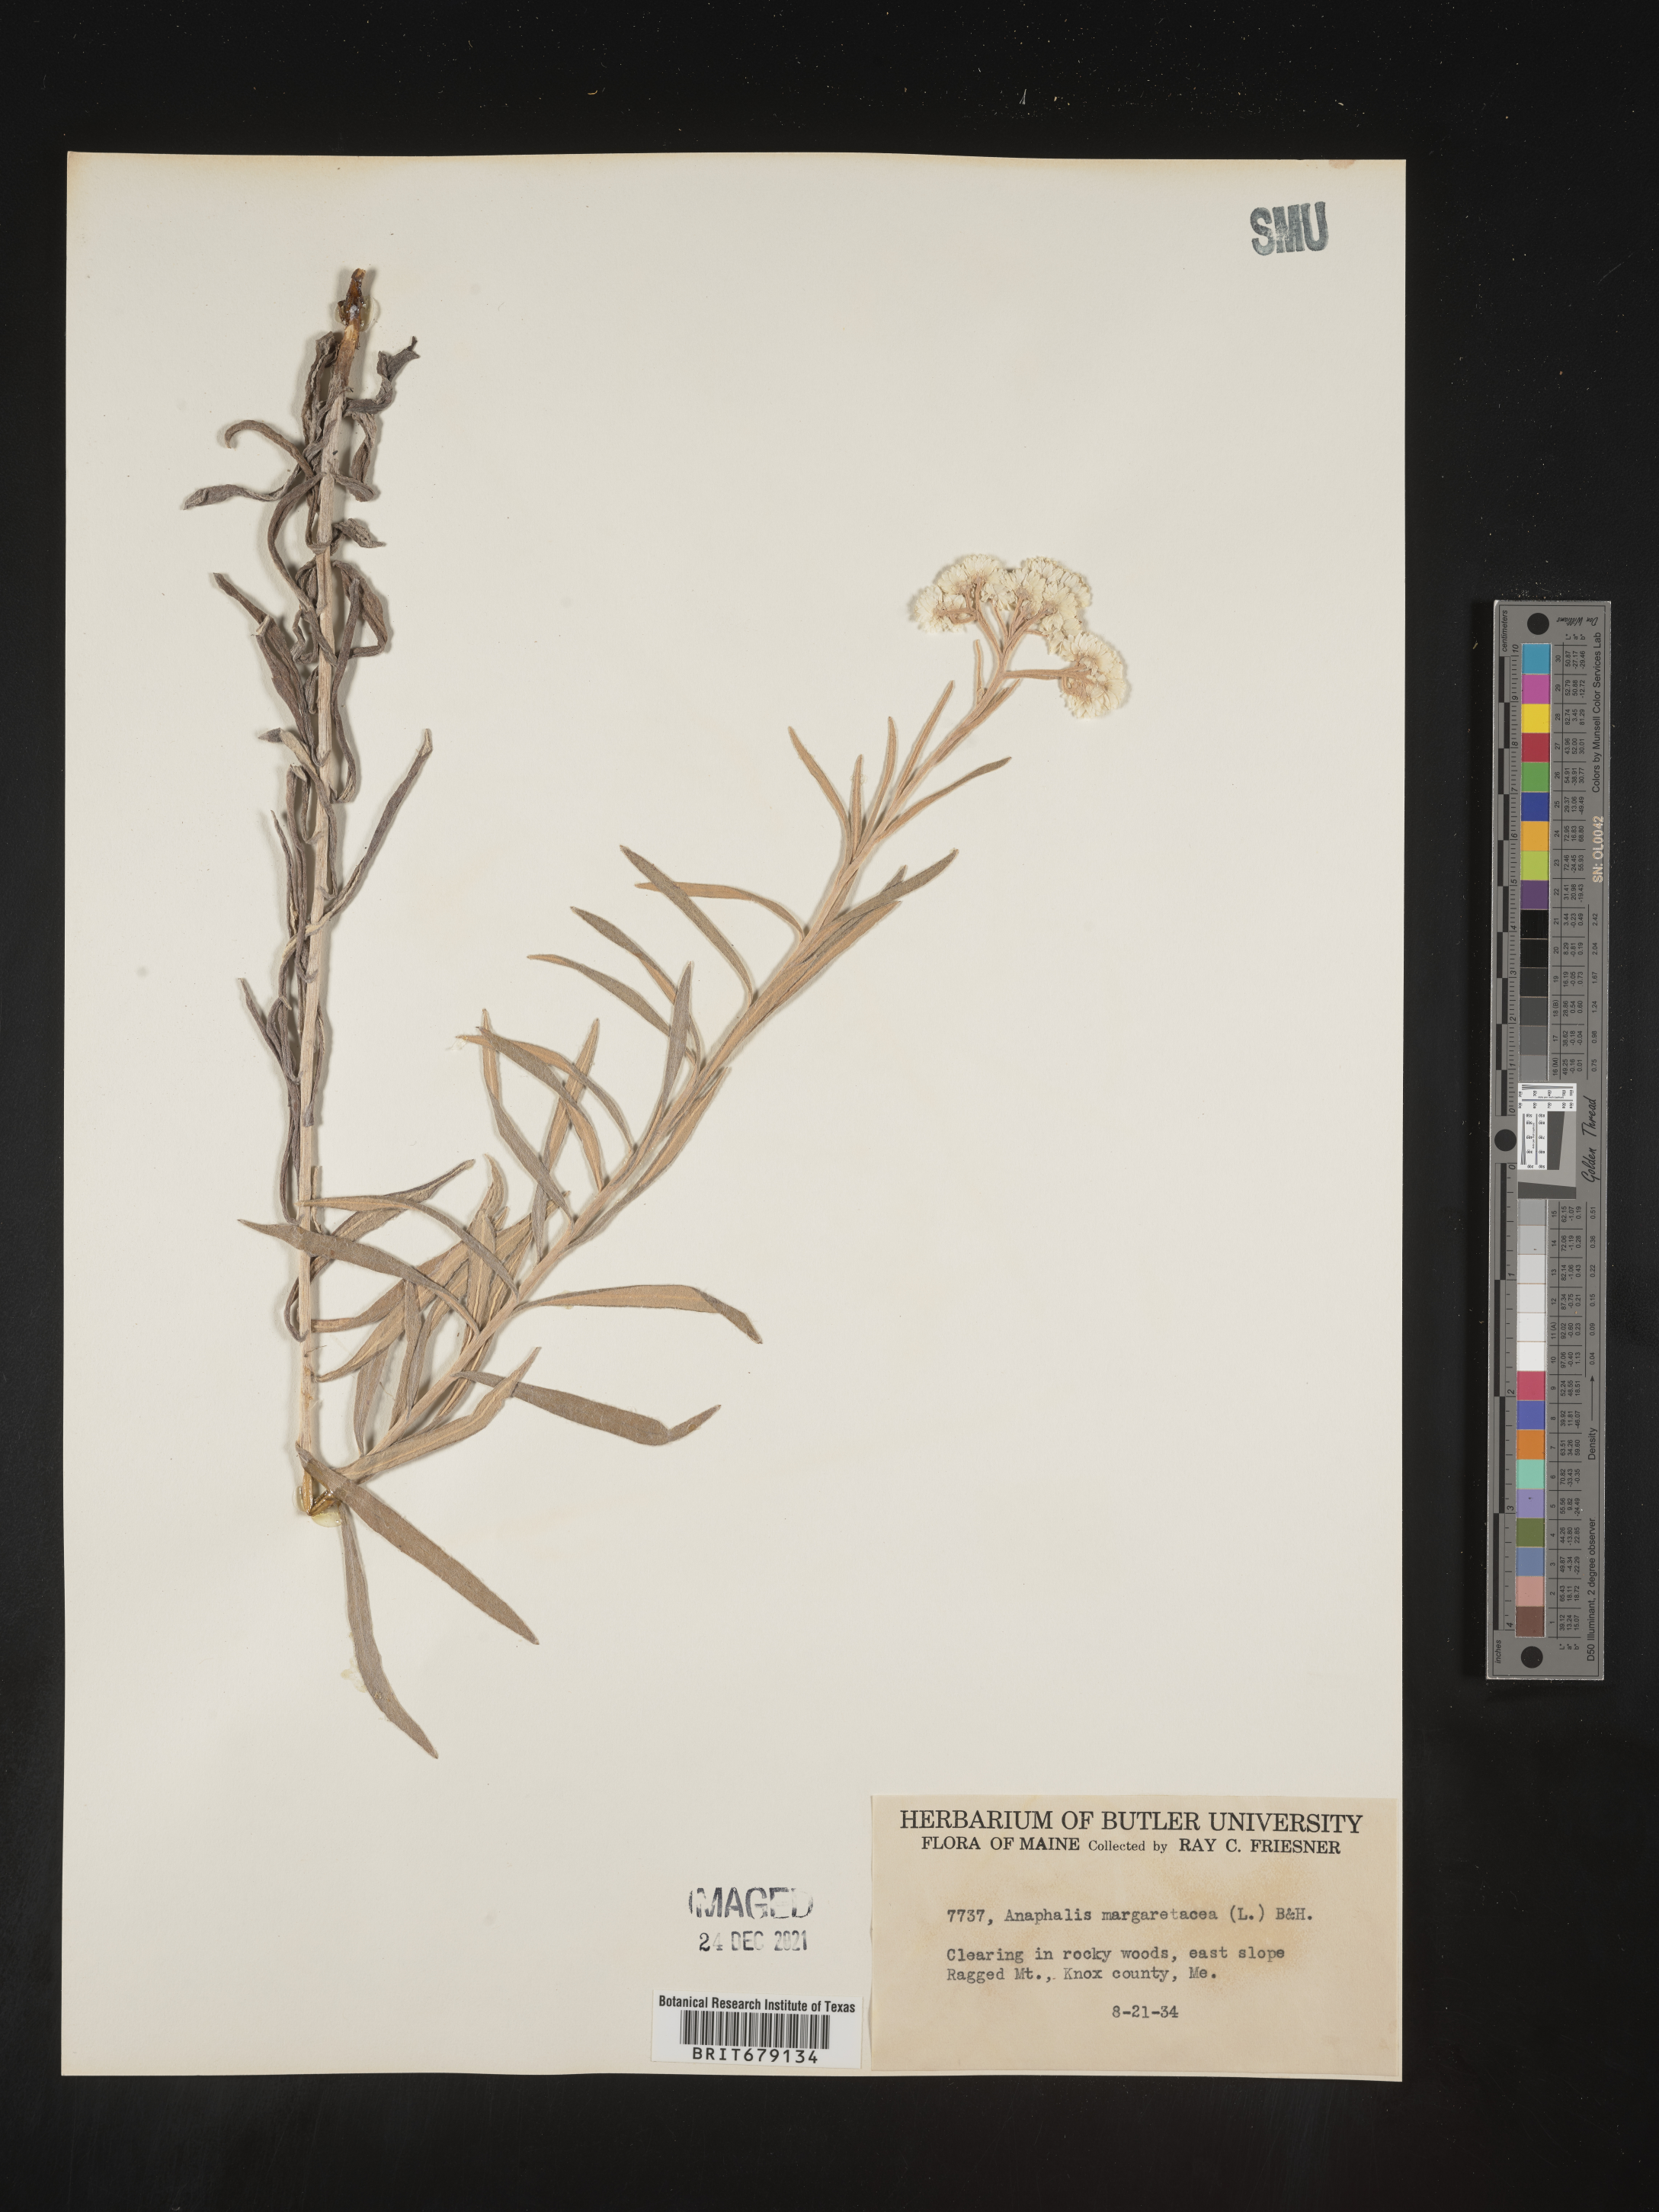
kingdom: Plantae
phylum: Tracheophyta
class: Magnoliopsida
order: Asterales
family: Asteraceae
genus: Anaphalis
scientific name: Anaphalis margaritacea
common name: Pearly everlasting
